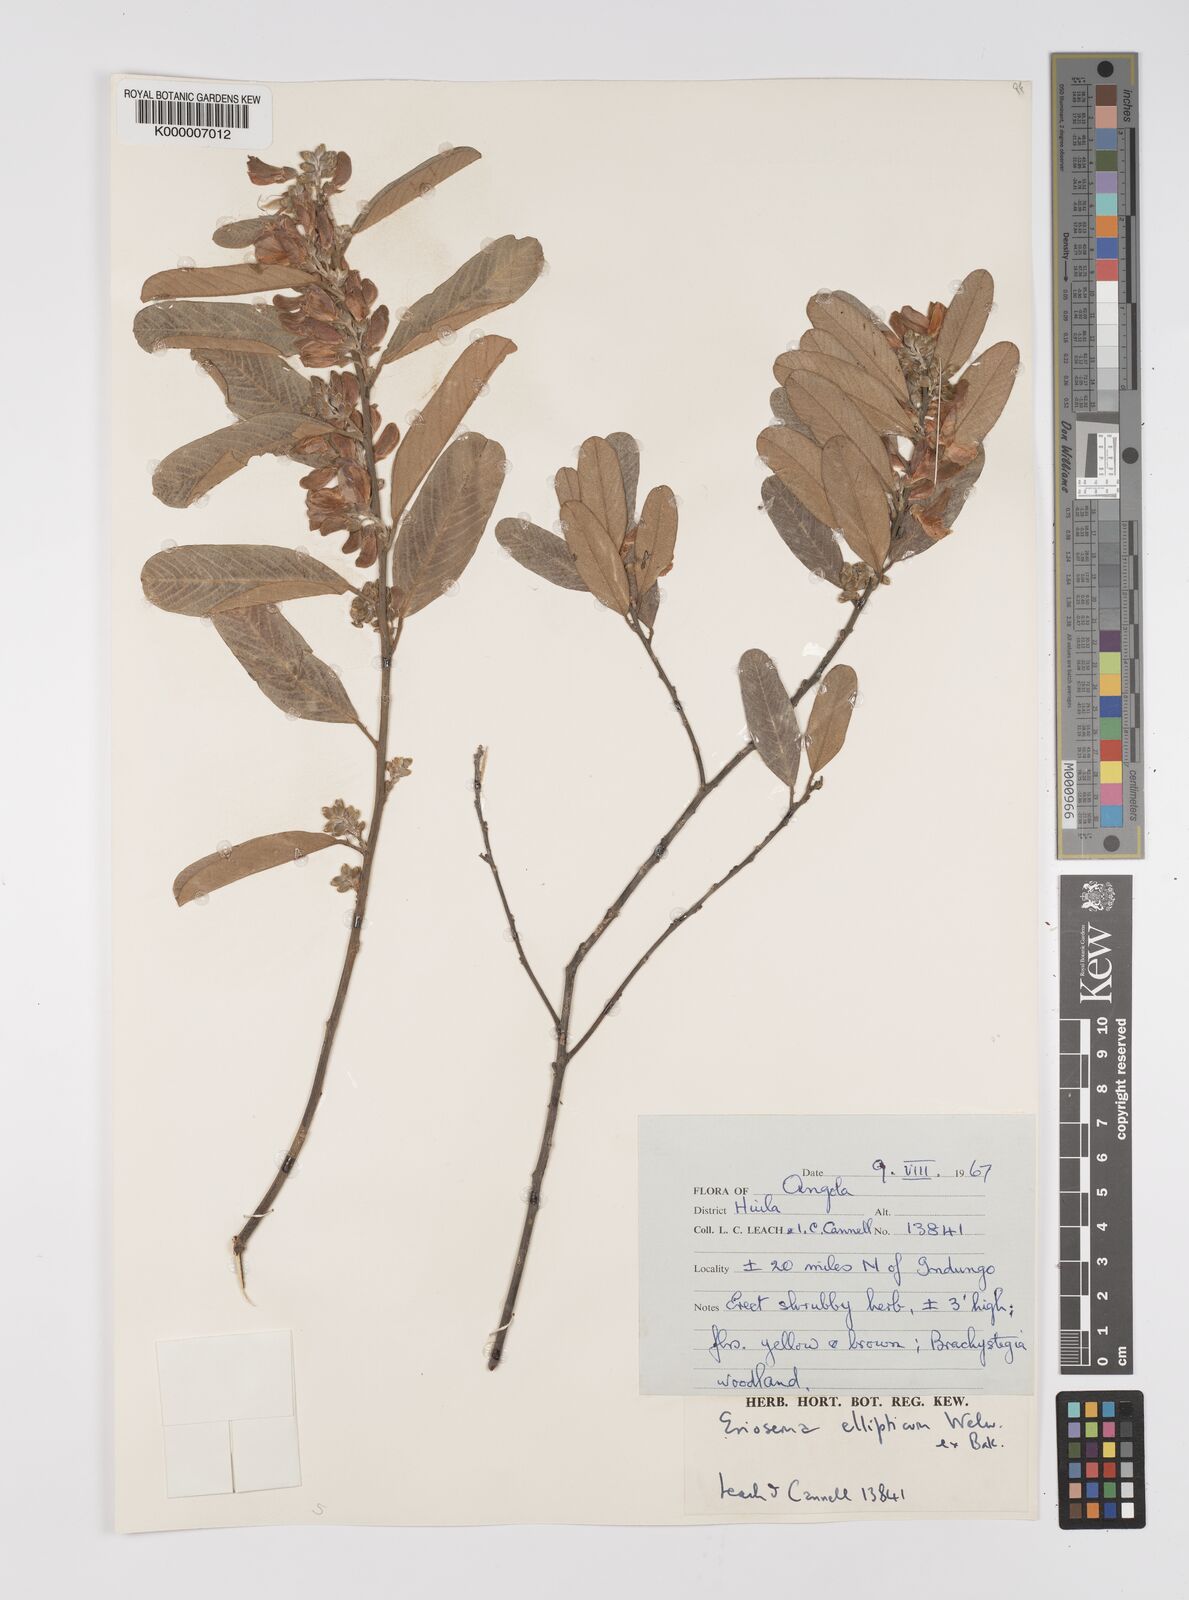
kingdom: Plantae
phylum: Tracheophyta
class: Magnoliopsida
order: Fabales
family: Fabaceae
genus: Eriosema
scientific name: Eriosema ellipticum
